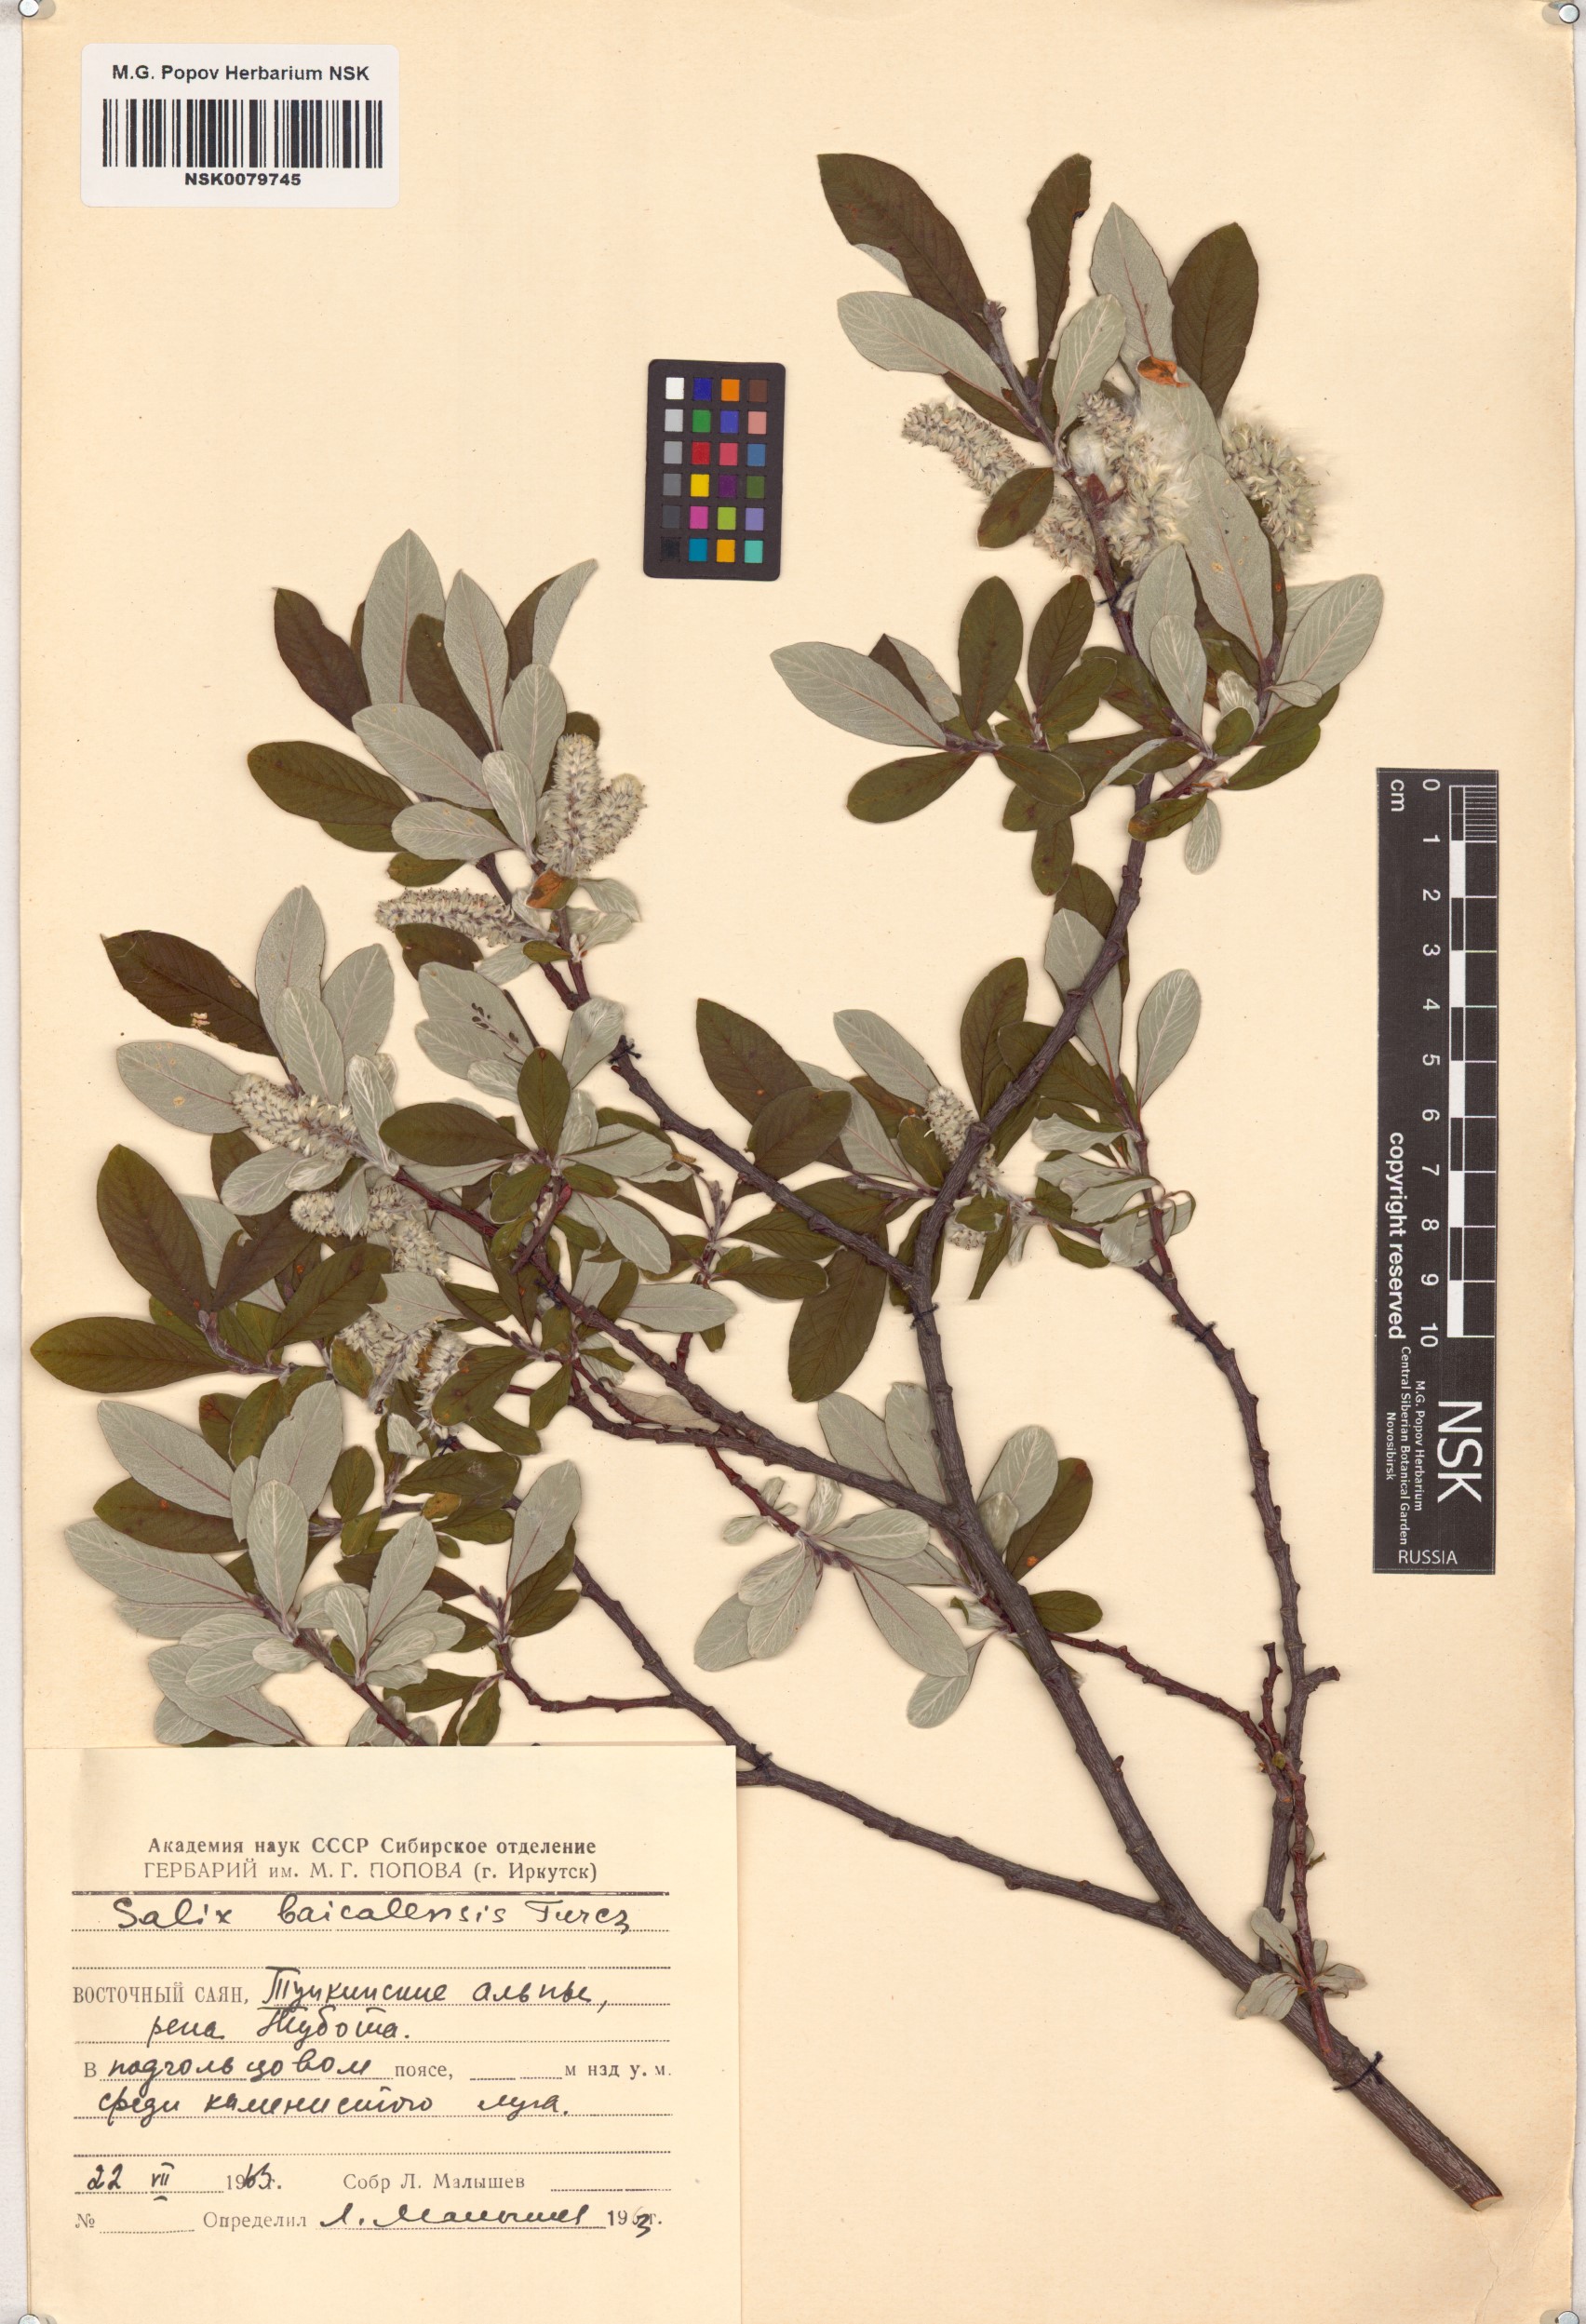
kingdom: Plantae
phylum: Tracheophyta
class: Magnoliopsida
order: Malpighiales
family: Salicaceae
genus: Salix
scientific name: Salix krylovii
